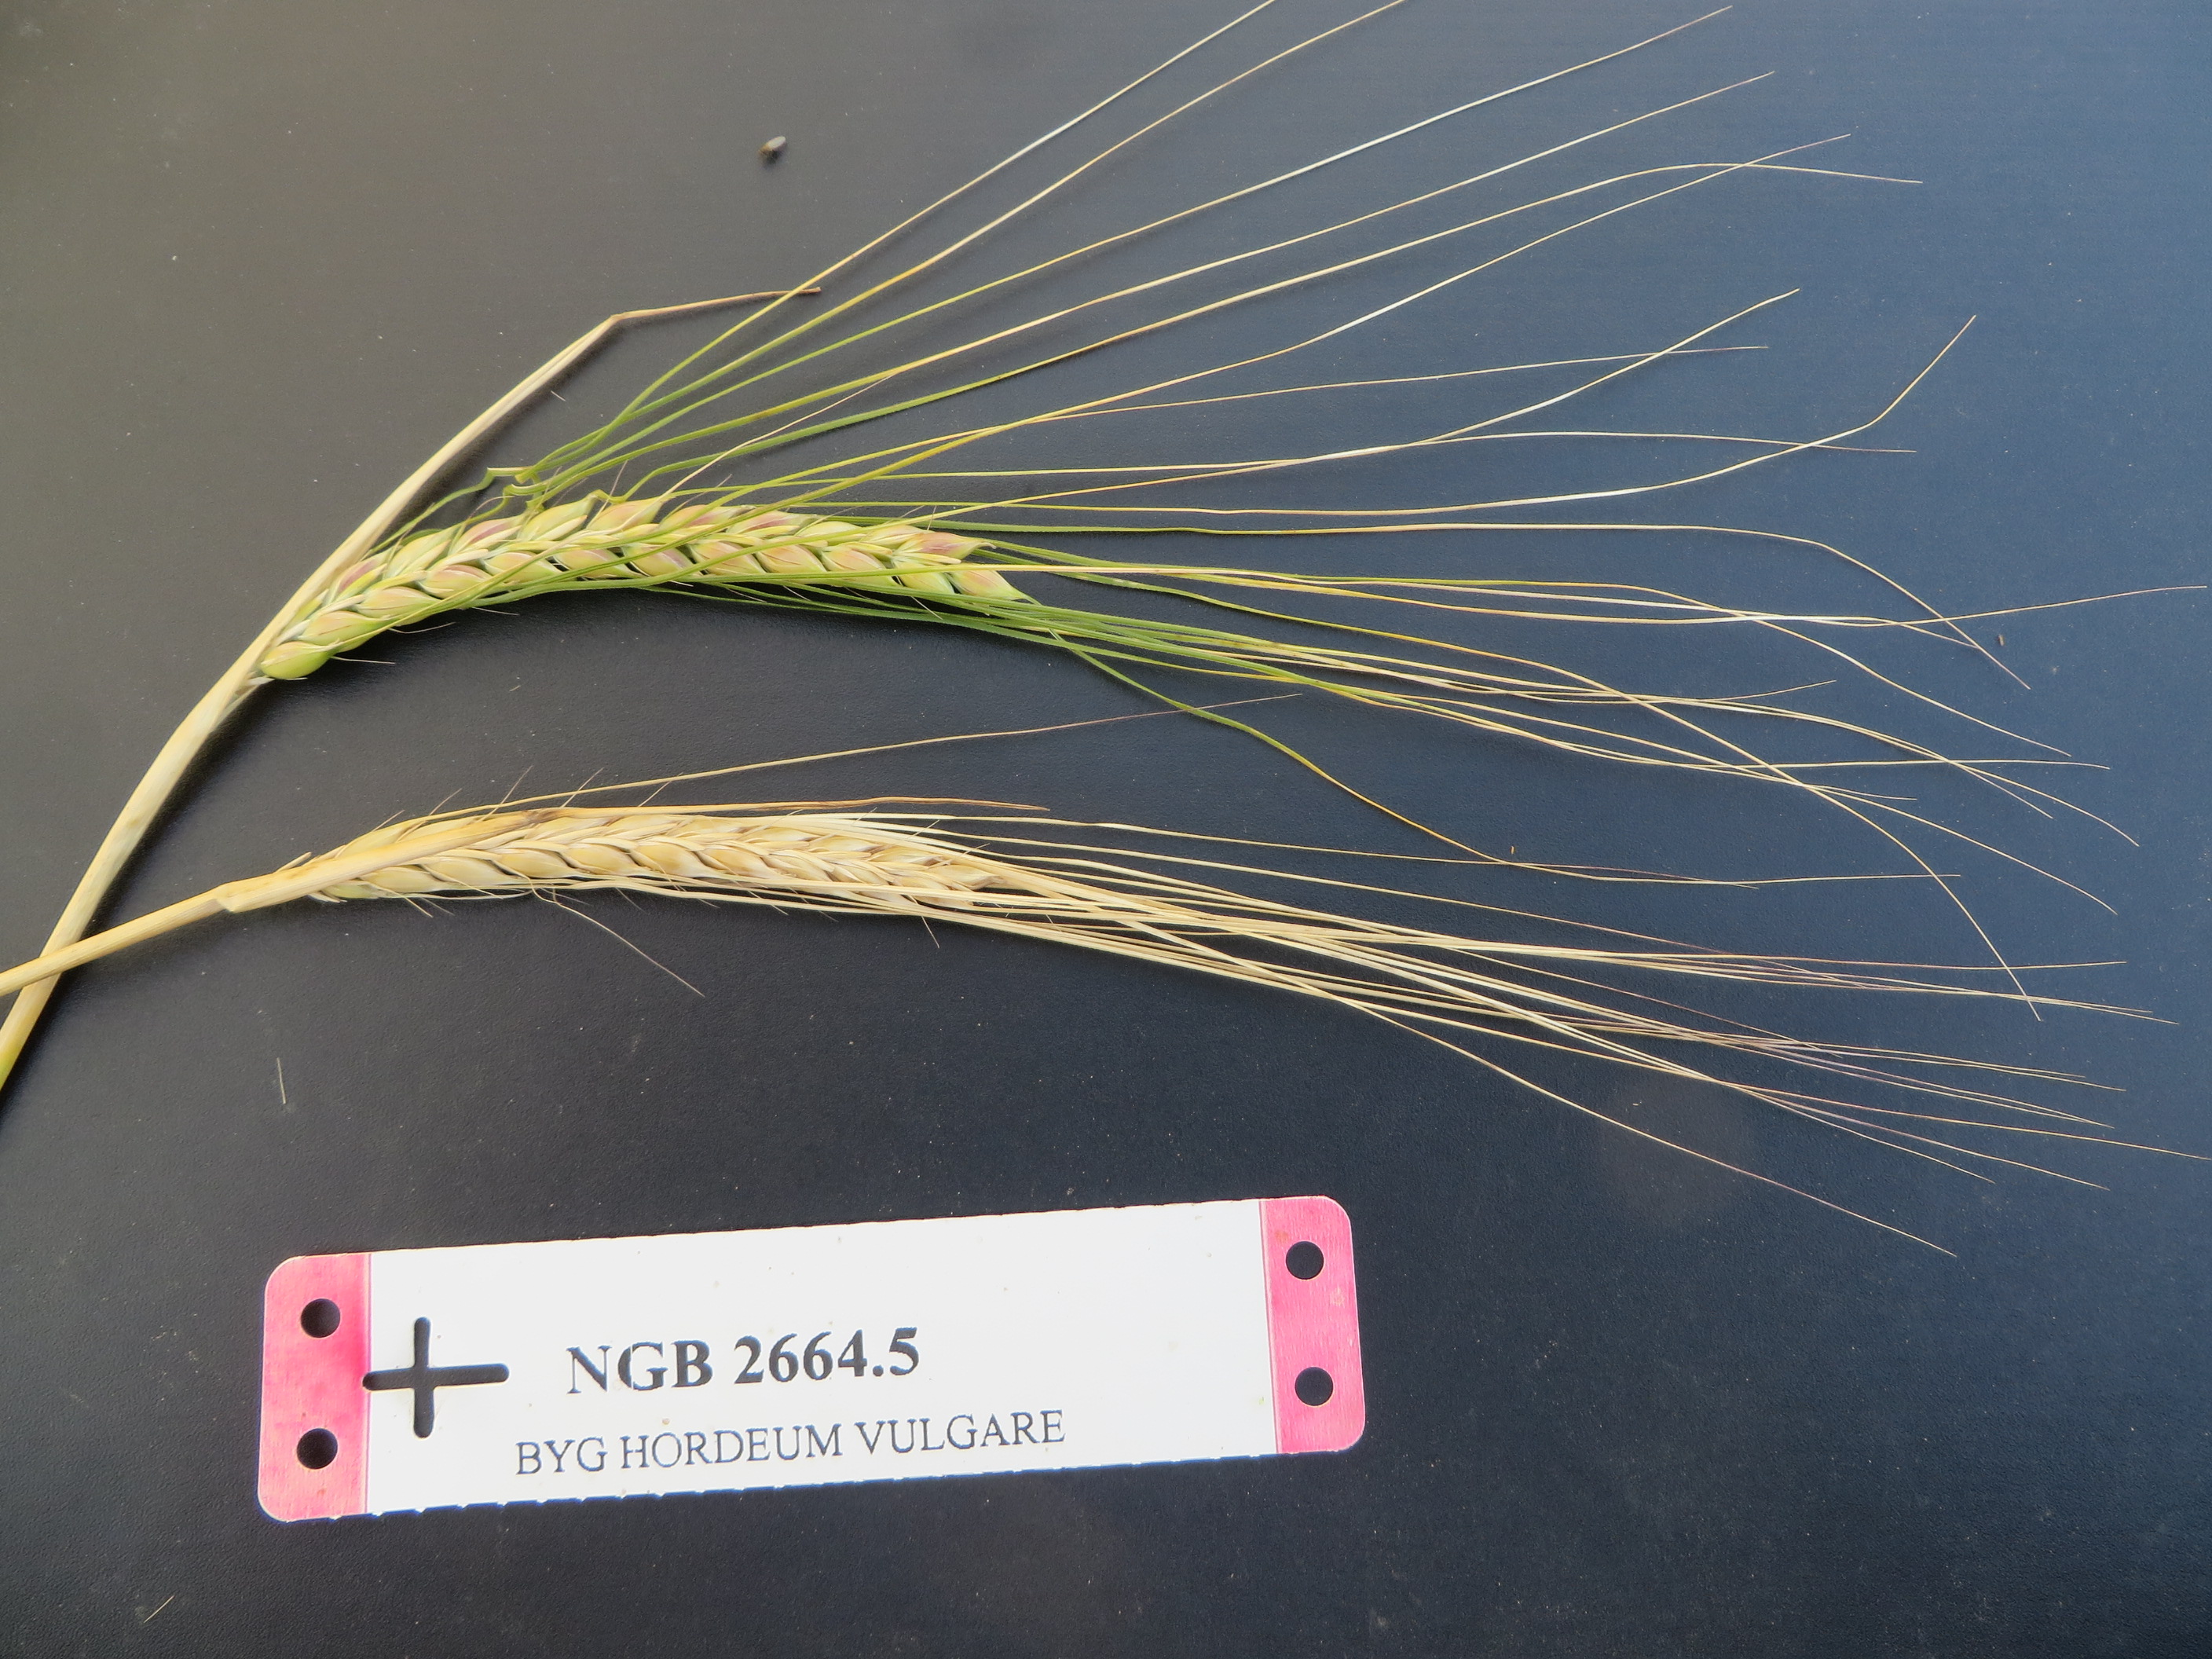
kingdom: Plantae
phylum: Tracheophyta
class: Liliopsida
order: Poales
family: Poaceae
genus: Hordeum
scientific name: Hordeum vulgare
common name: Common barley
